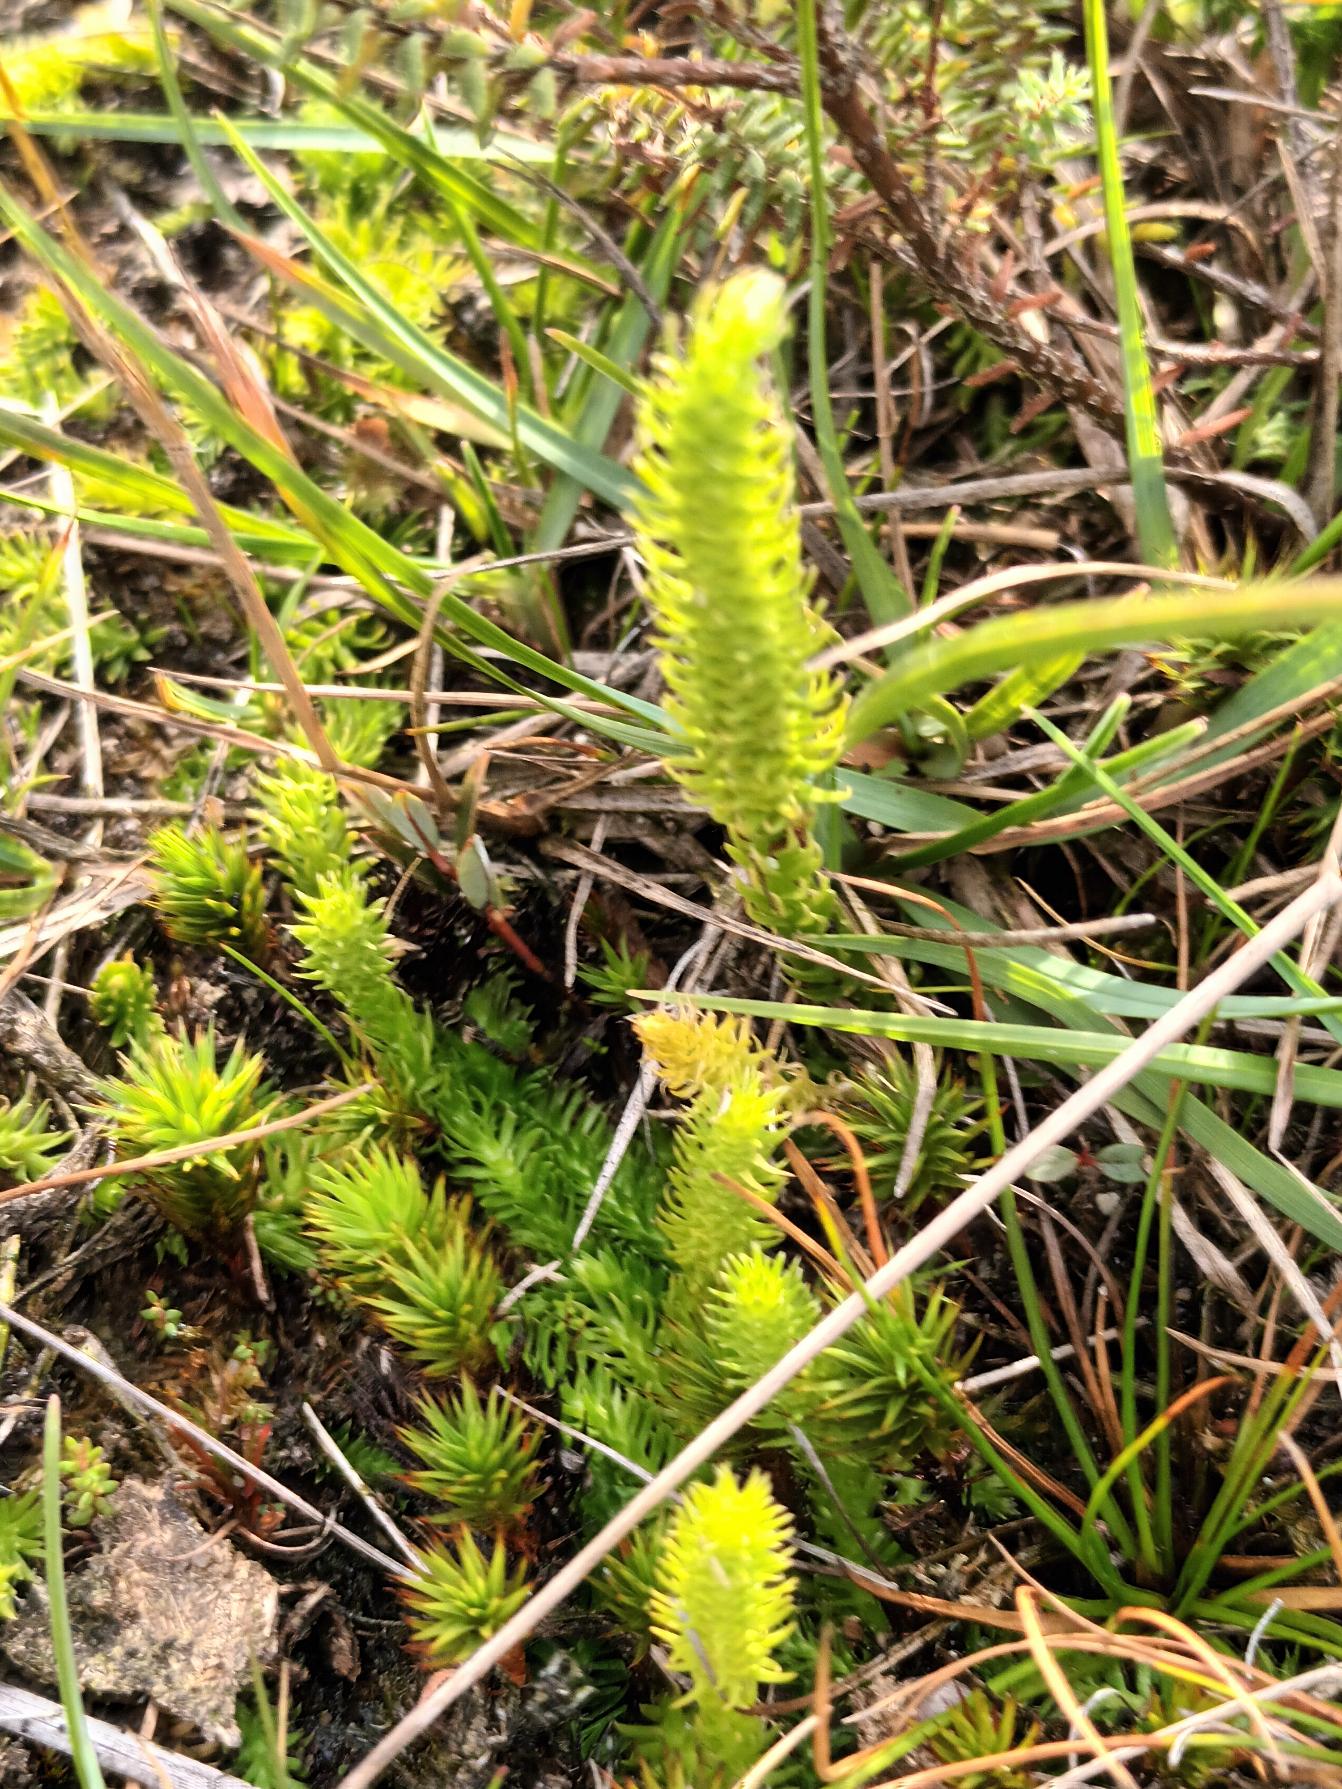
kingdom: Plantae
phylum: Tracheophyta
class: Lycopodiopsida
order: Lycopodiales
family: Lycopodiaceae
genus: Lycopodiella
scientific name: Lycopodiella inundata
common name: Liden ulvefod
